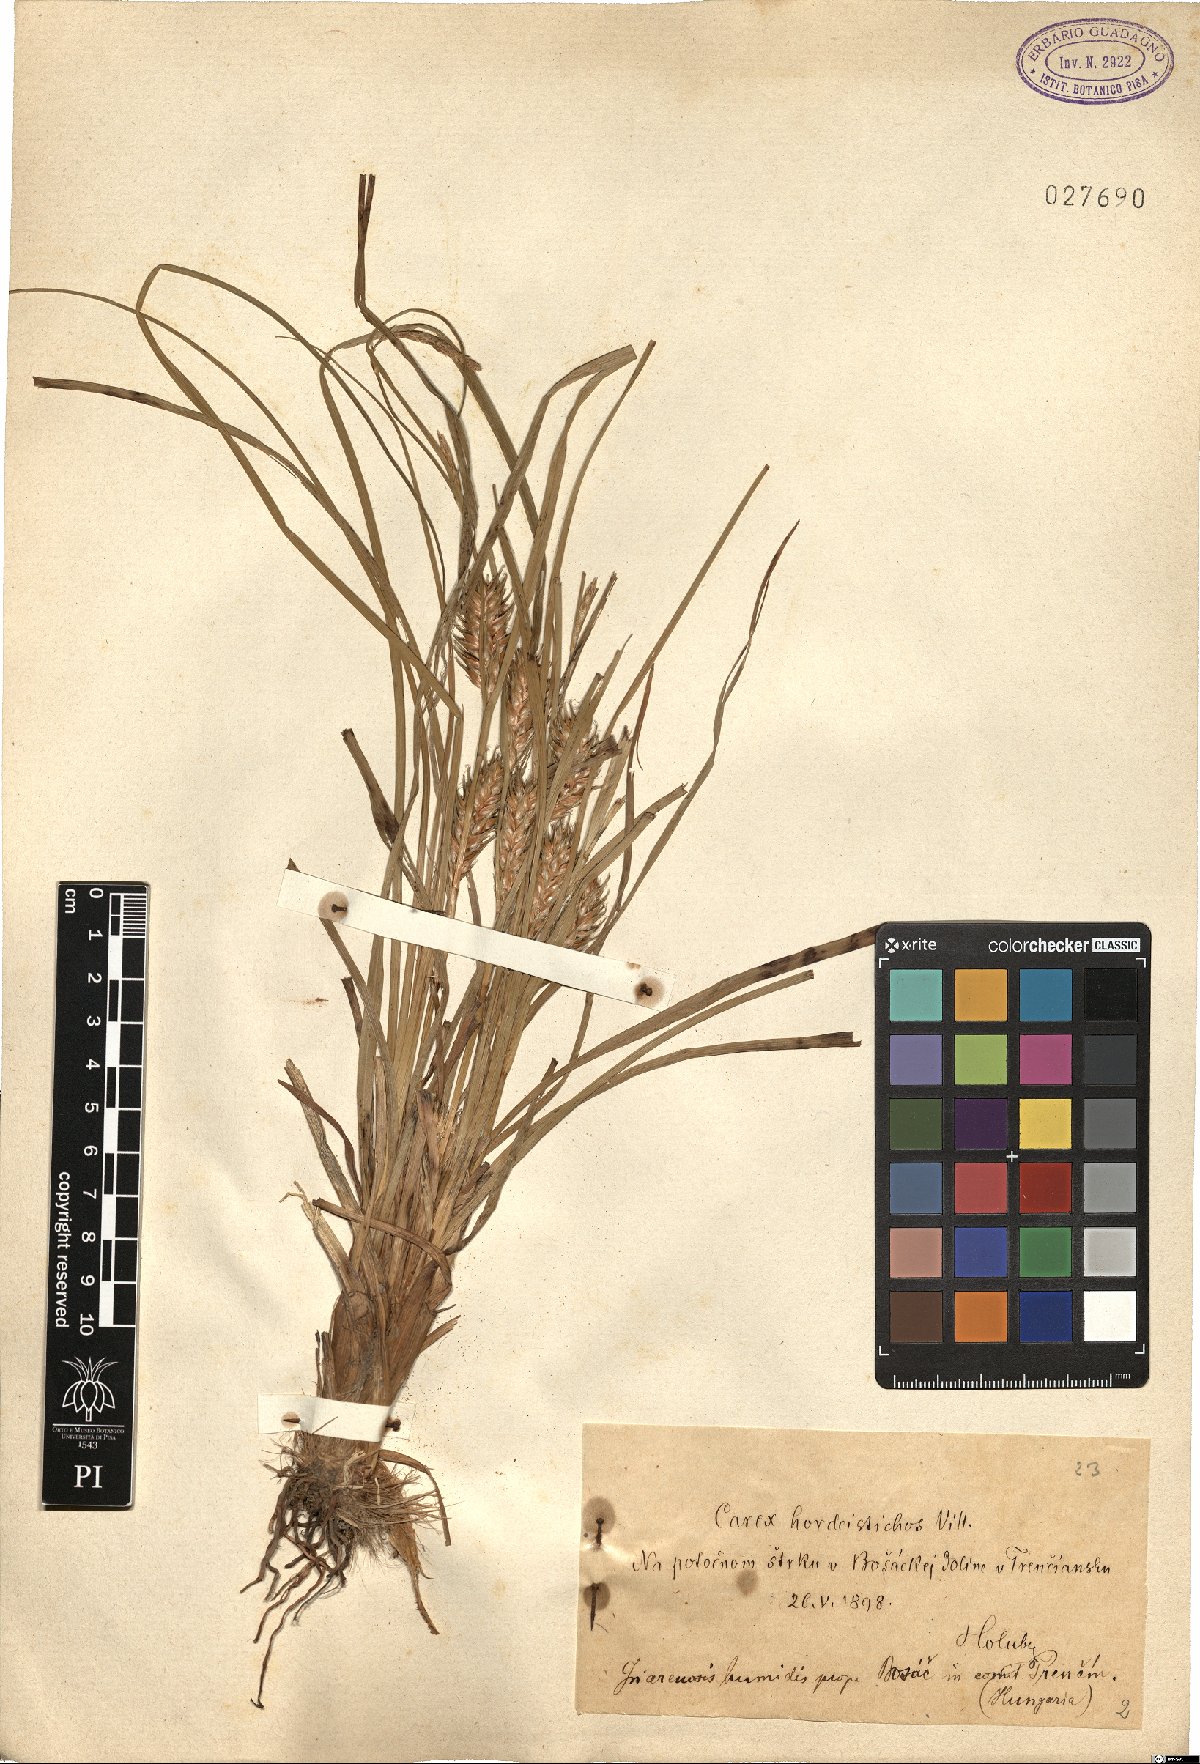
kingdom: Plantae
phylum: Tracheophyta
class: Liliopsida
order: Poales
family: Cyperaceae
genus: Carex
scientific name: Carex hordeistichos
